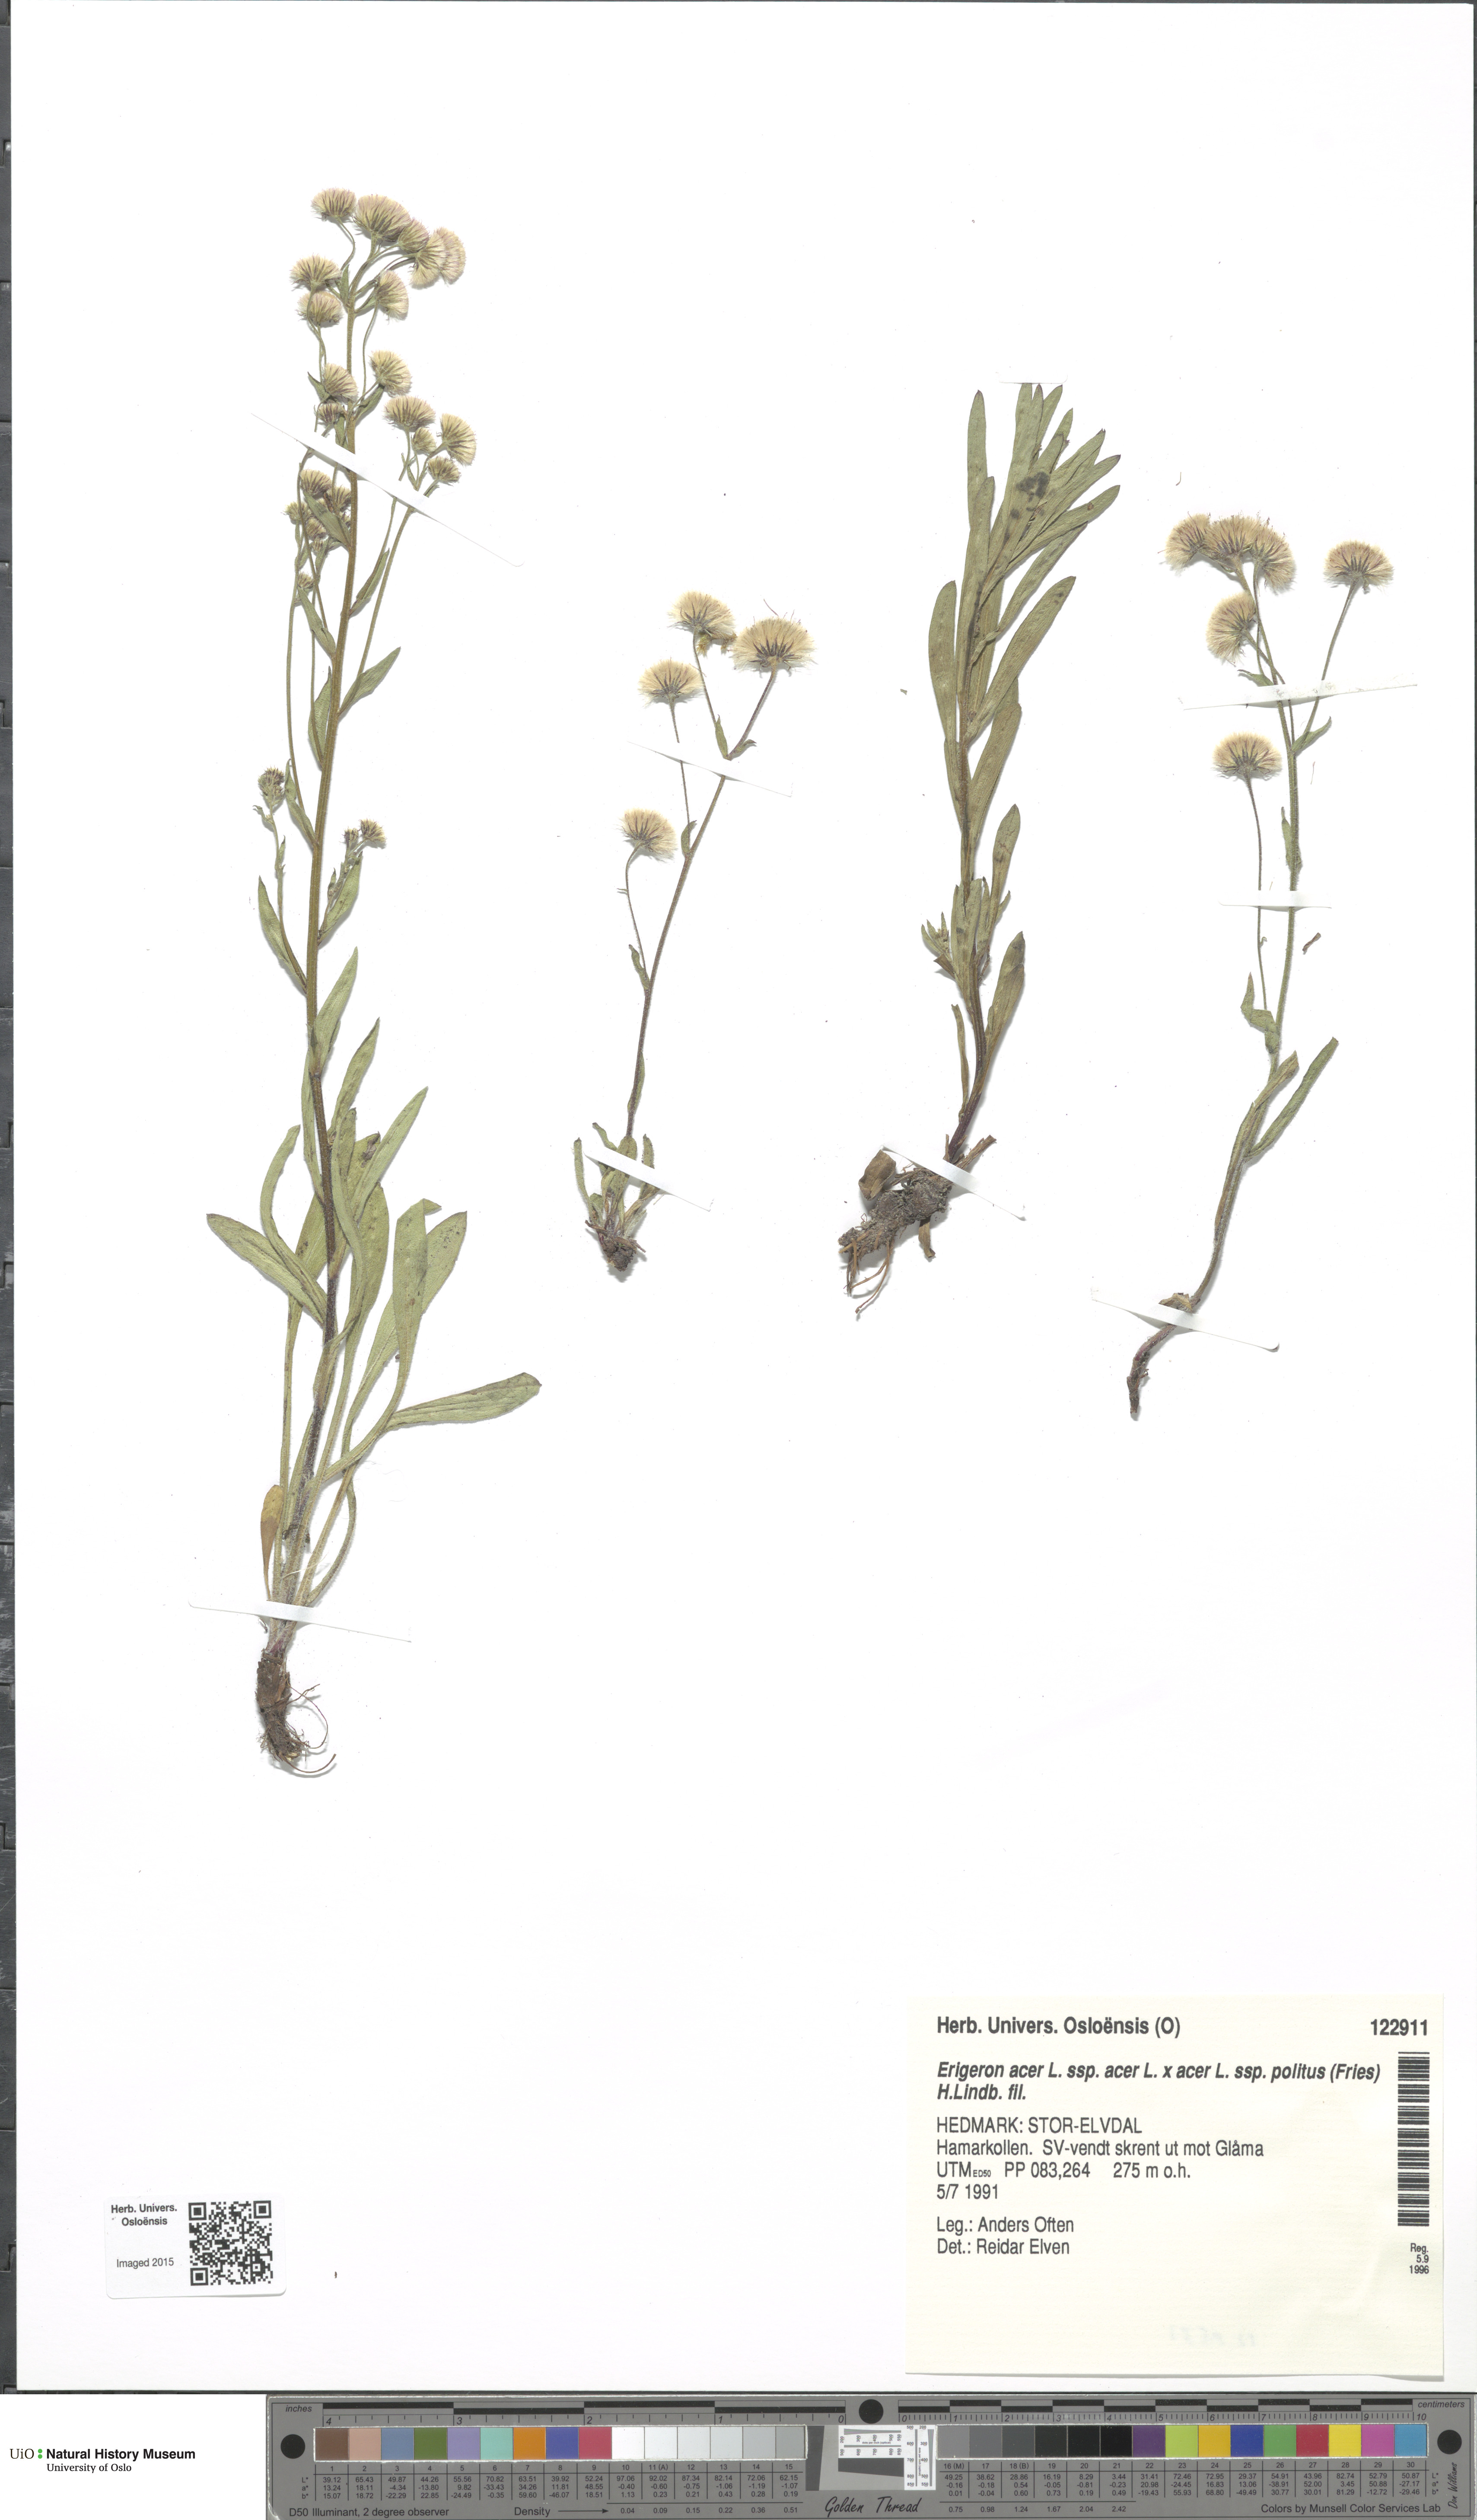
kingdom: Plantae
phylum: Tracheophyta
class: Magnoliopsida
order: Asterales
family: Asteraceae
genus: Erigeron
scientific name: Erigeron
